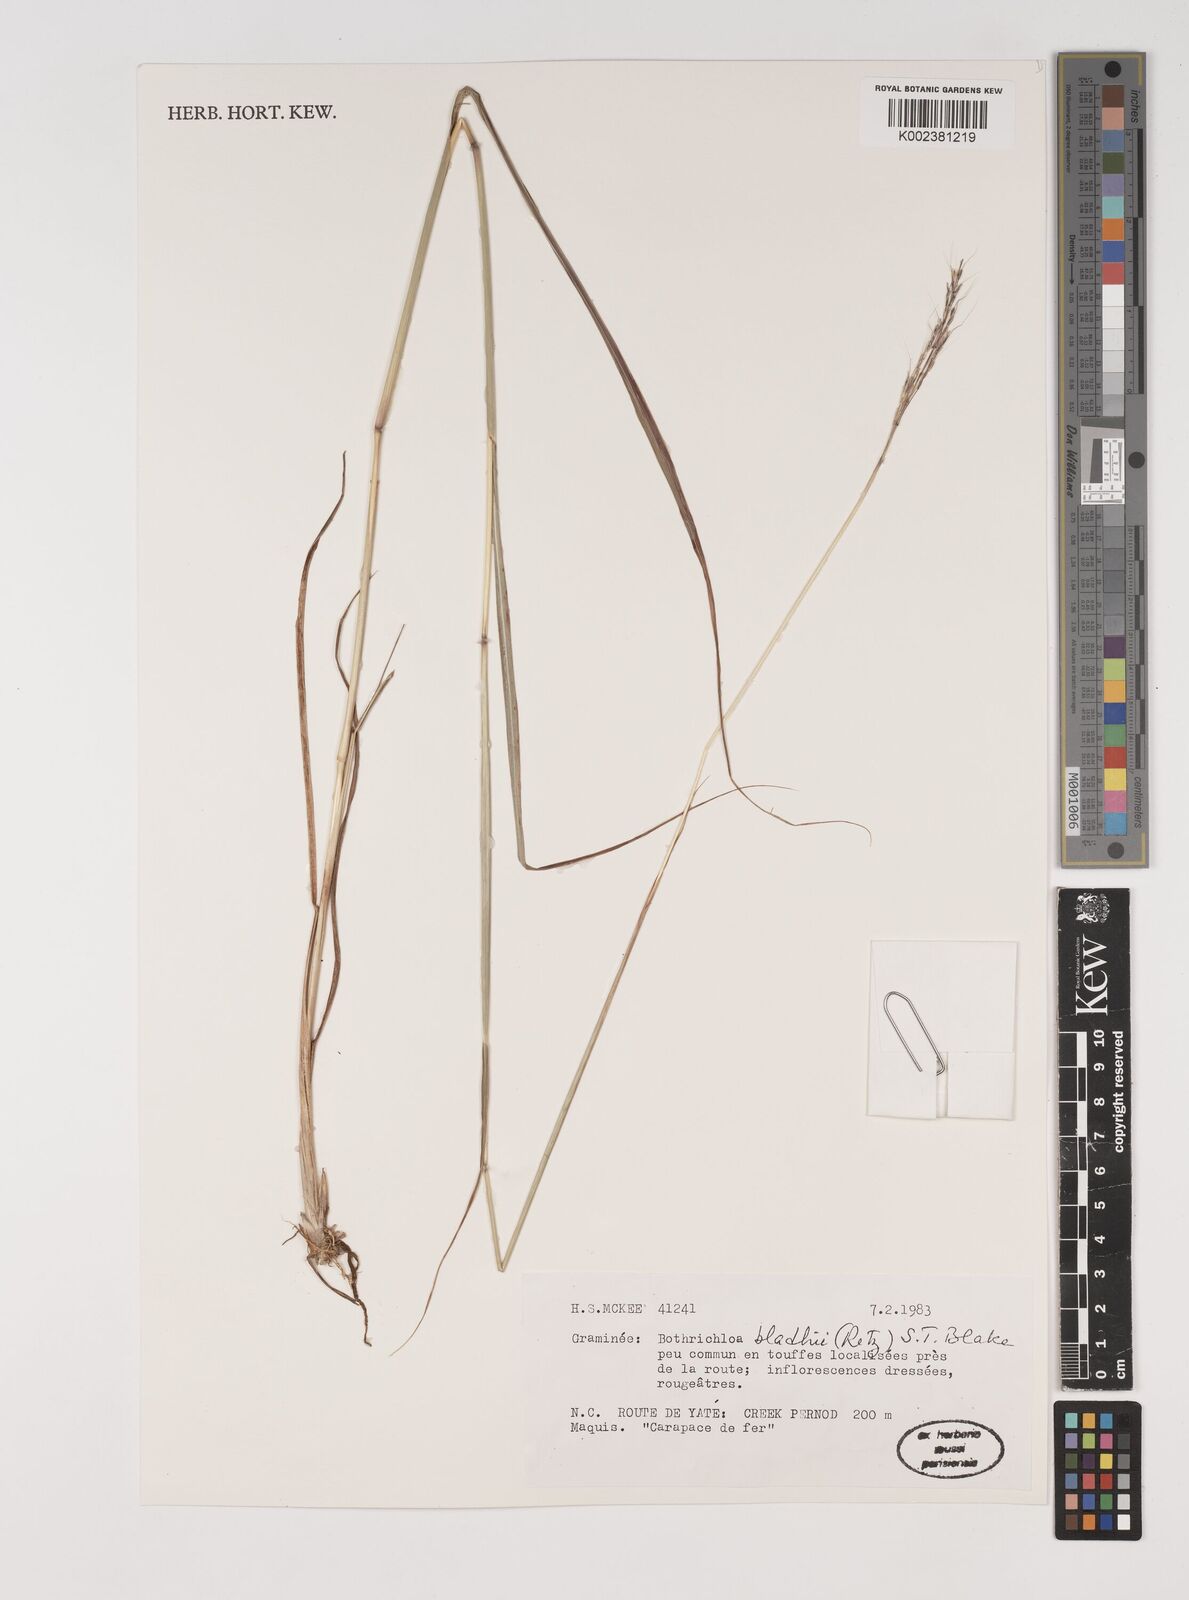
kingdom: Plantae
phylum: Tracheophyta
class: Liliopsida
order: Poales
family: Poaceae
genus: Bothriochloa
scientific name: Bothriochloa bladhii
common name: Caucasian bluestem
